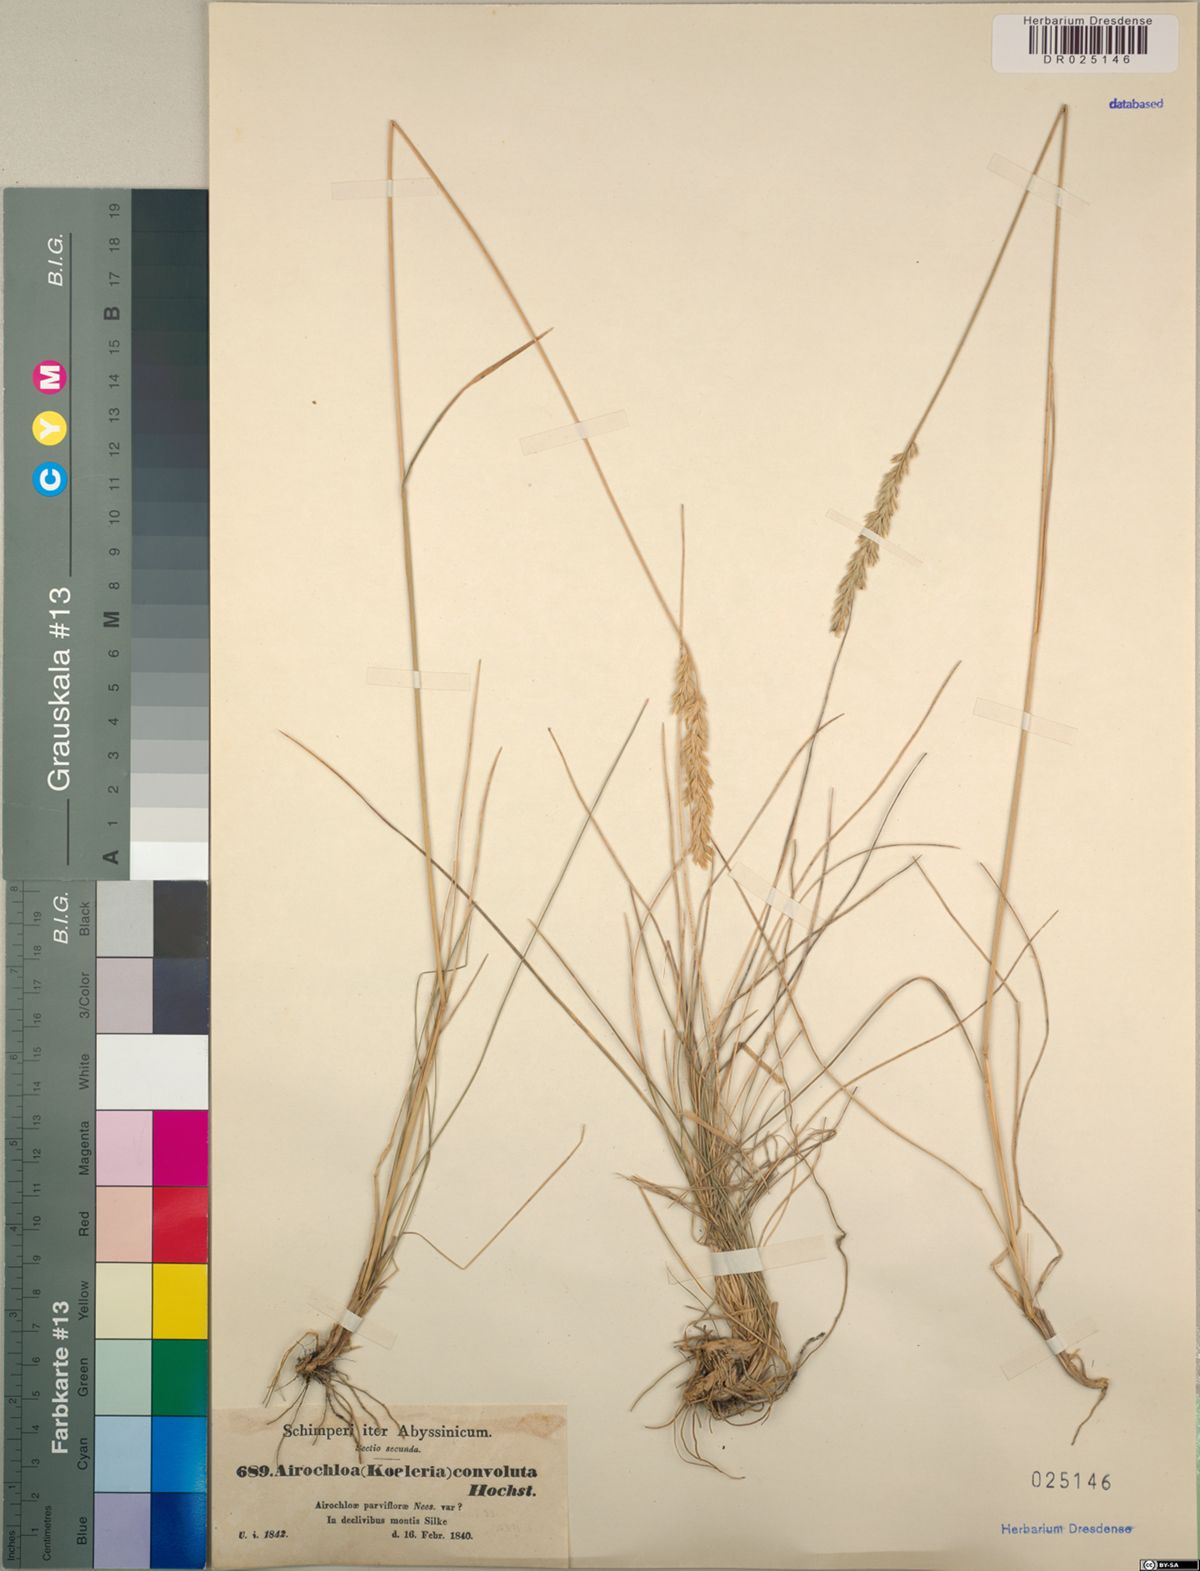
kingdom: Plantae
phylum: Tracheophyta
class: Liliopsida
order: Poales
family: Poaceae
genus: Koeleria
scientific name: Koeleria capensis
